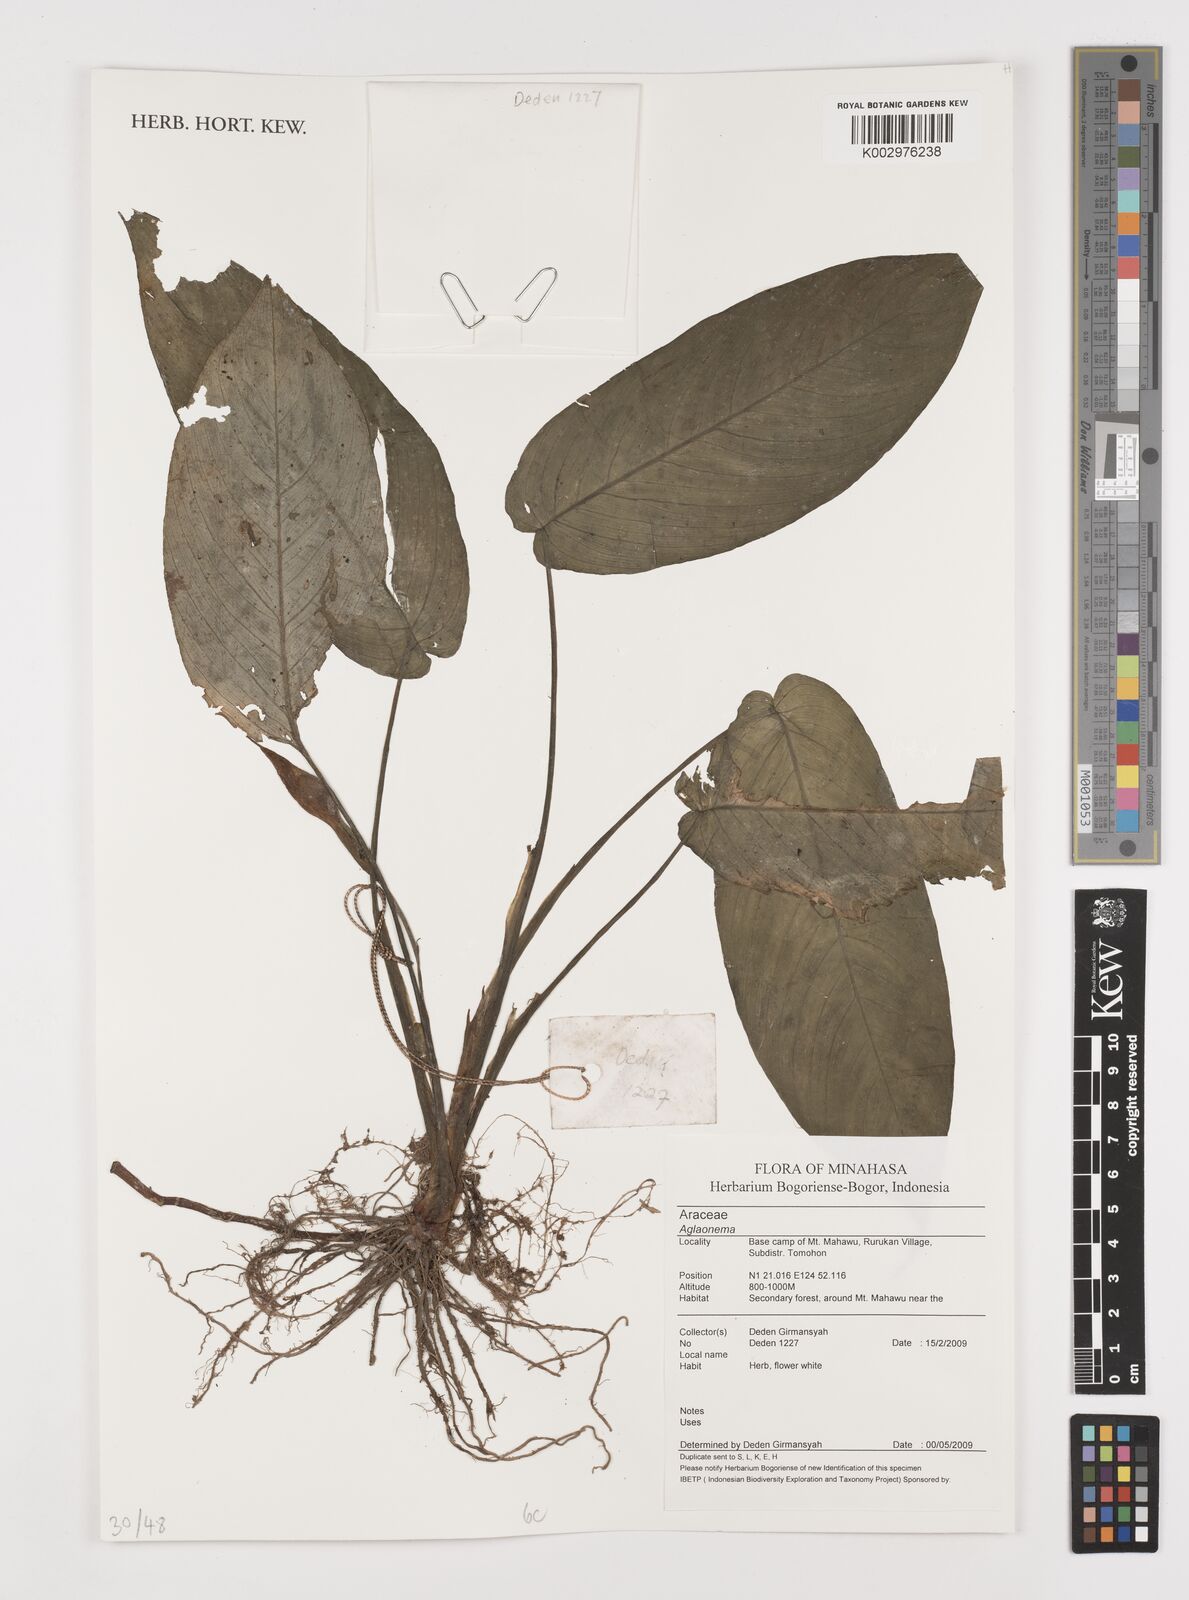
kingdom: Plantae
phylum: Tracheophyta
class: Liliopsida
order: Alismatales
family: Araceae
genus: Aglaonema
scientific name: Aglaonema
